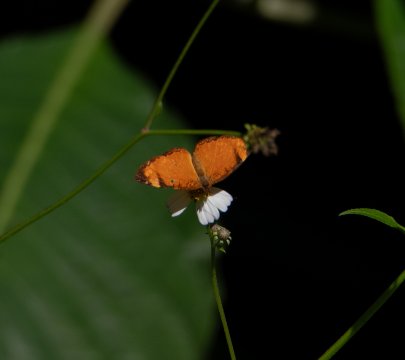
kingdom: Animalia
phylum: Arthropoda
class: Insecta
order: Lepidoptera
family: Nymphalidae
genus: Tegosa
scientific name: Tegosa anieta
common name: Black-bordered Crescent
